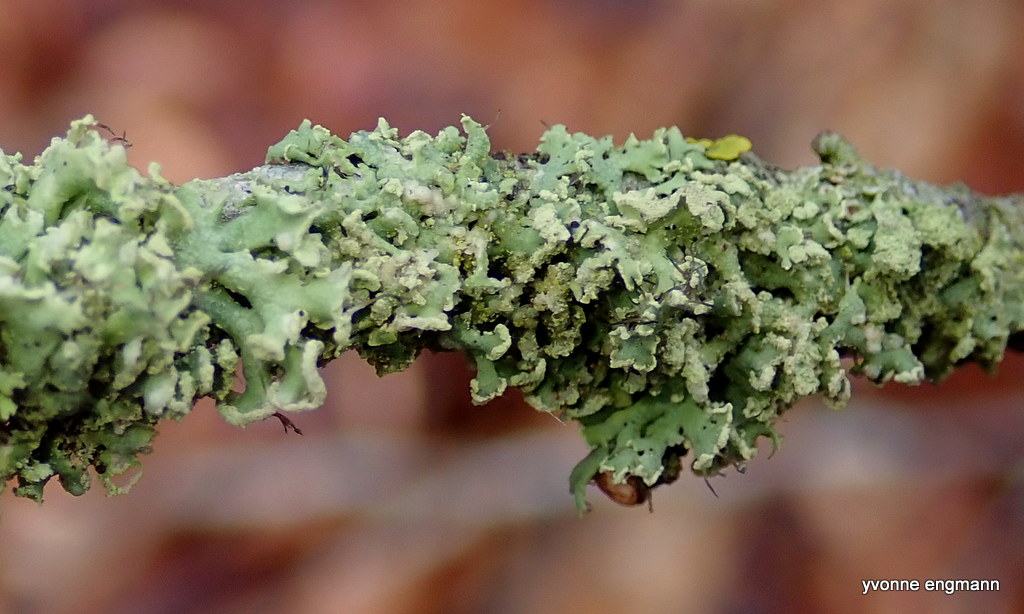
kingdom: Fungi
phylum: Ascomycota
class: Lecanoromycetes
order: Caliciales
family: Physciaceae
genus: Physcia
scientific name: Physcia tenella
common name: spæd rosetlav
